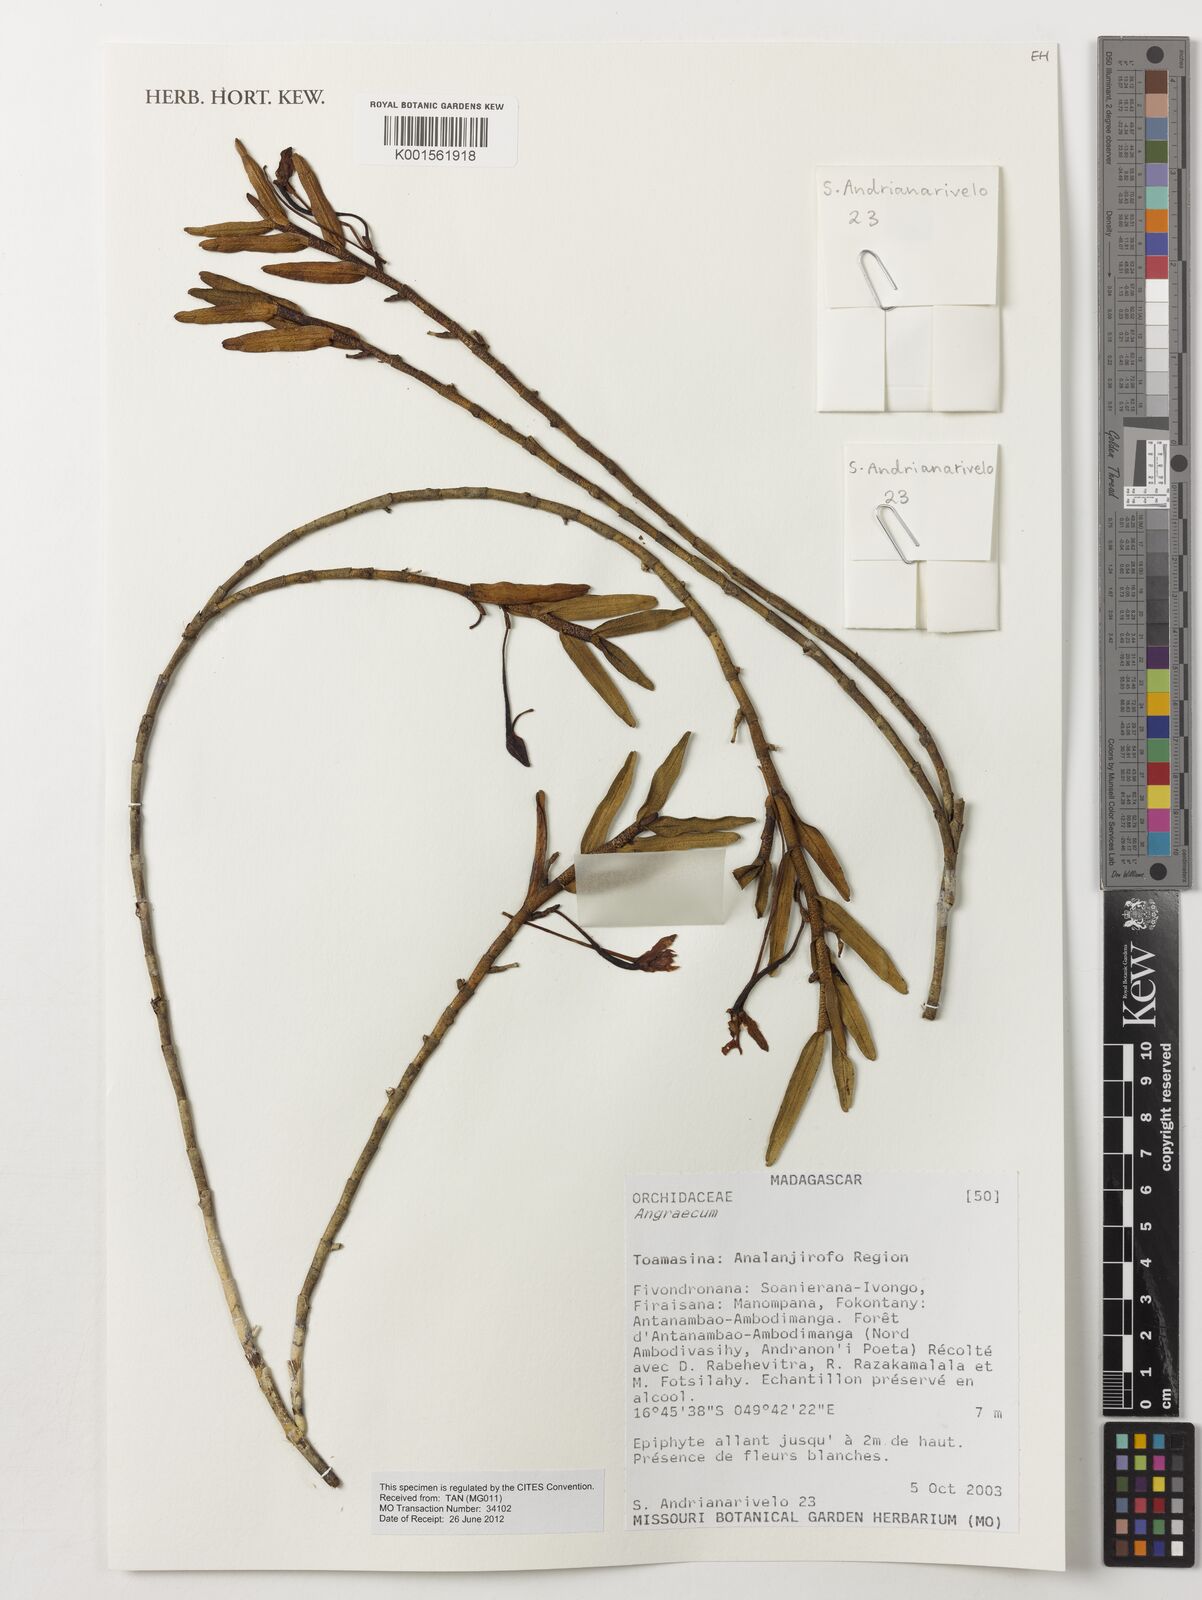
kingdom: Plantae
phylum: Tracheophyta
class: Liliopsida
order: Asparagales
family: Orchidaceae
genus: Angraecum
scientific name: Angraecum
